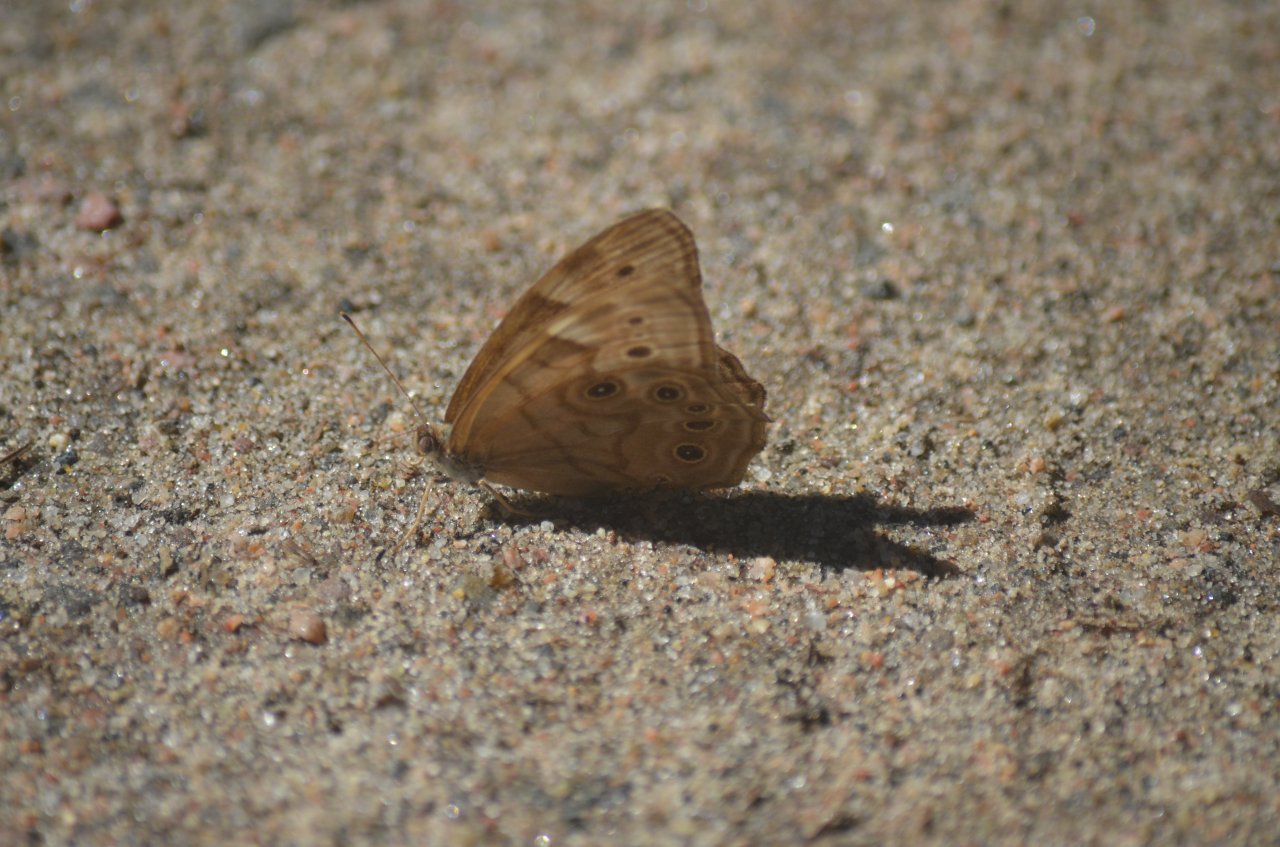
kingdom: Animalia
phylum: Arthropoda
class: Insecta
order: Lepidoptera
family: Nymphalidae
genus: Lethe
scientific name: Lethe anthedon
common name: Northern Pearly-Eye
